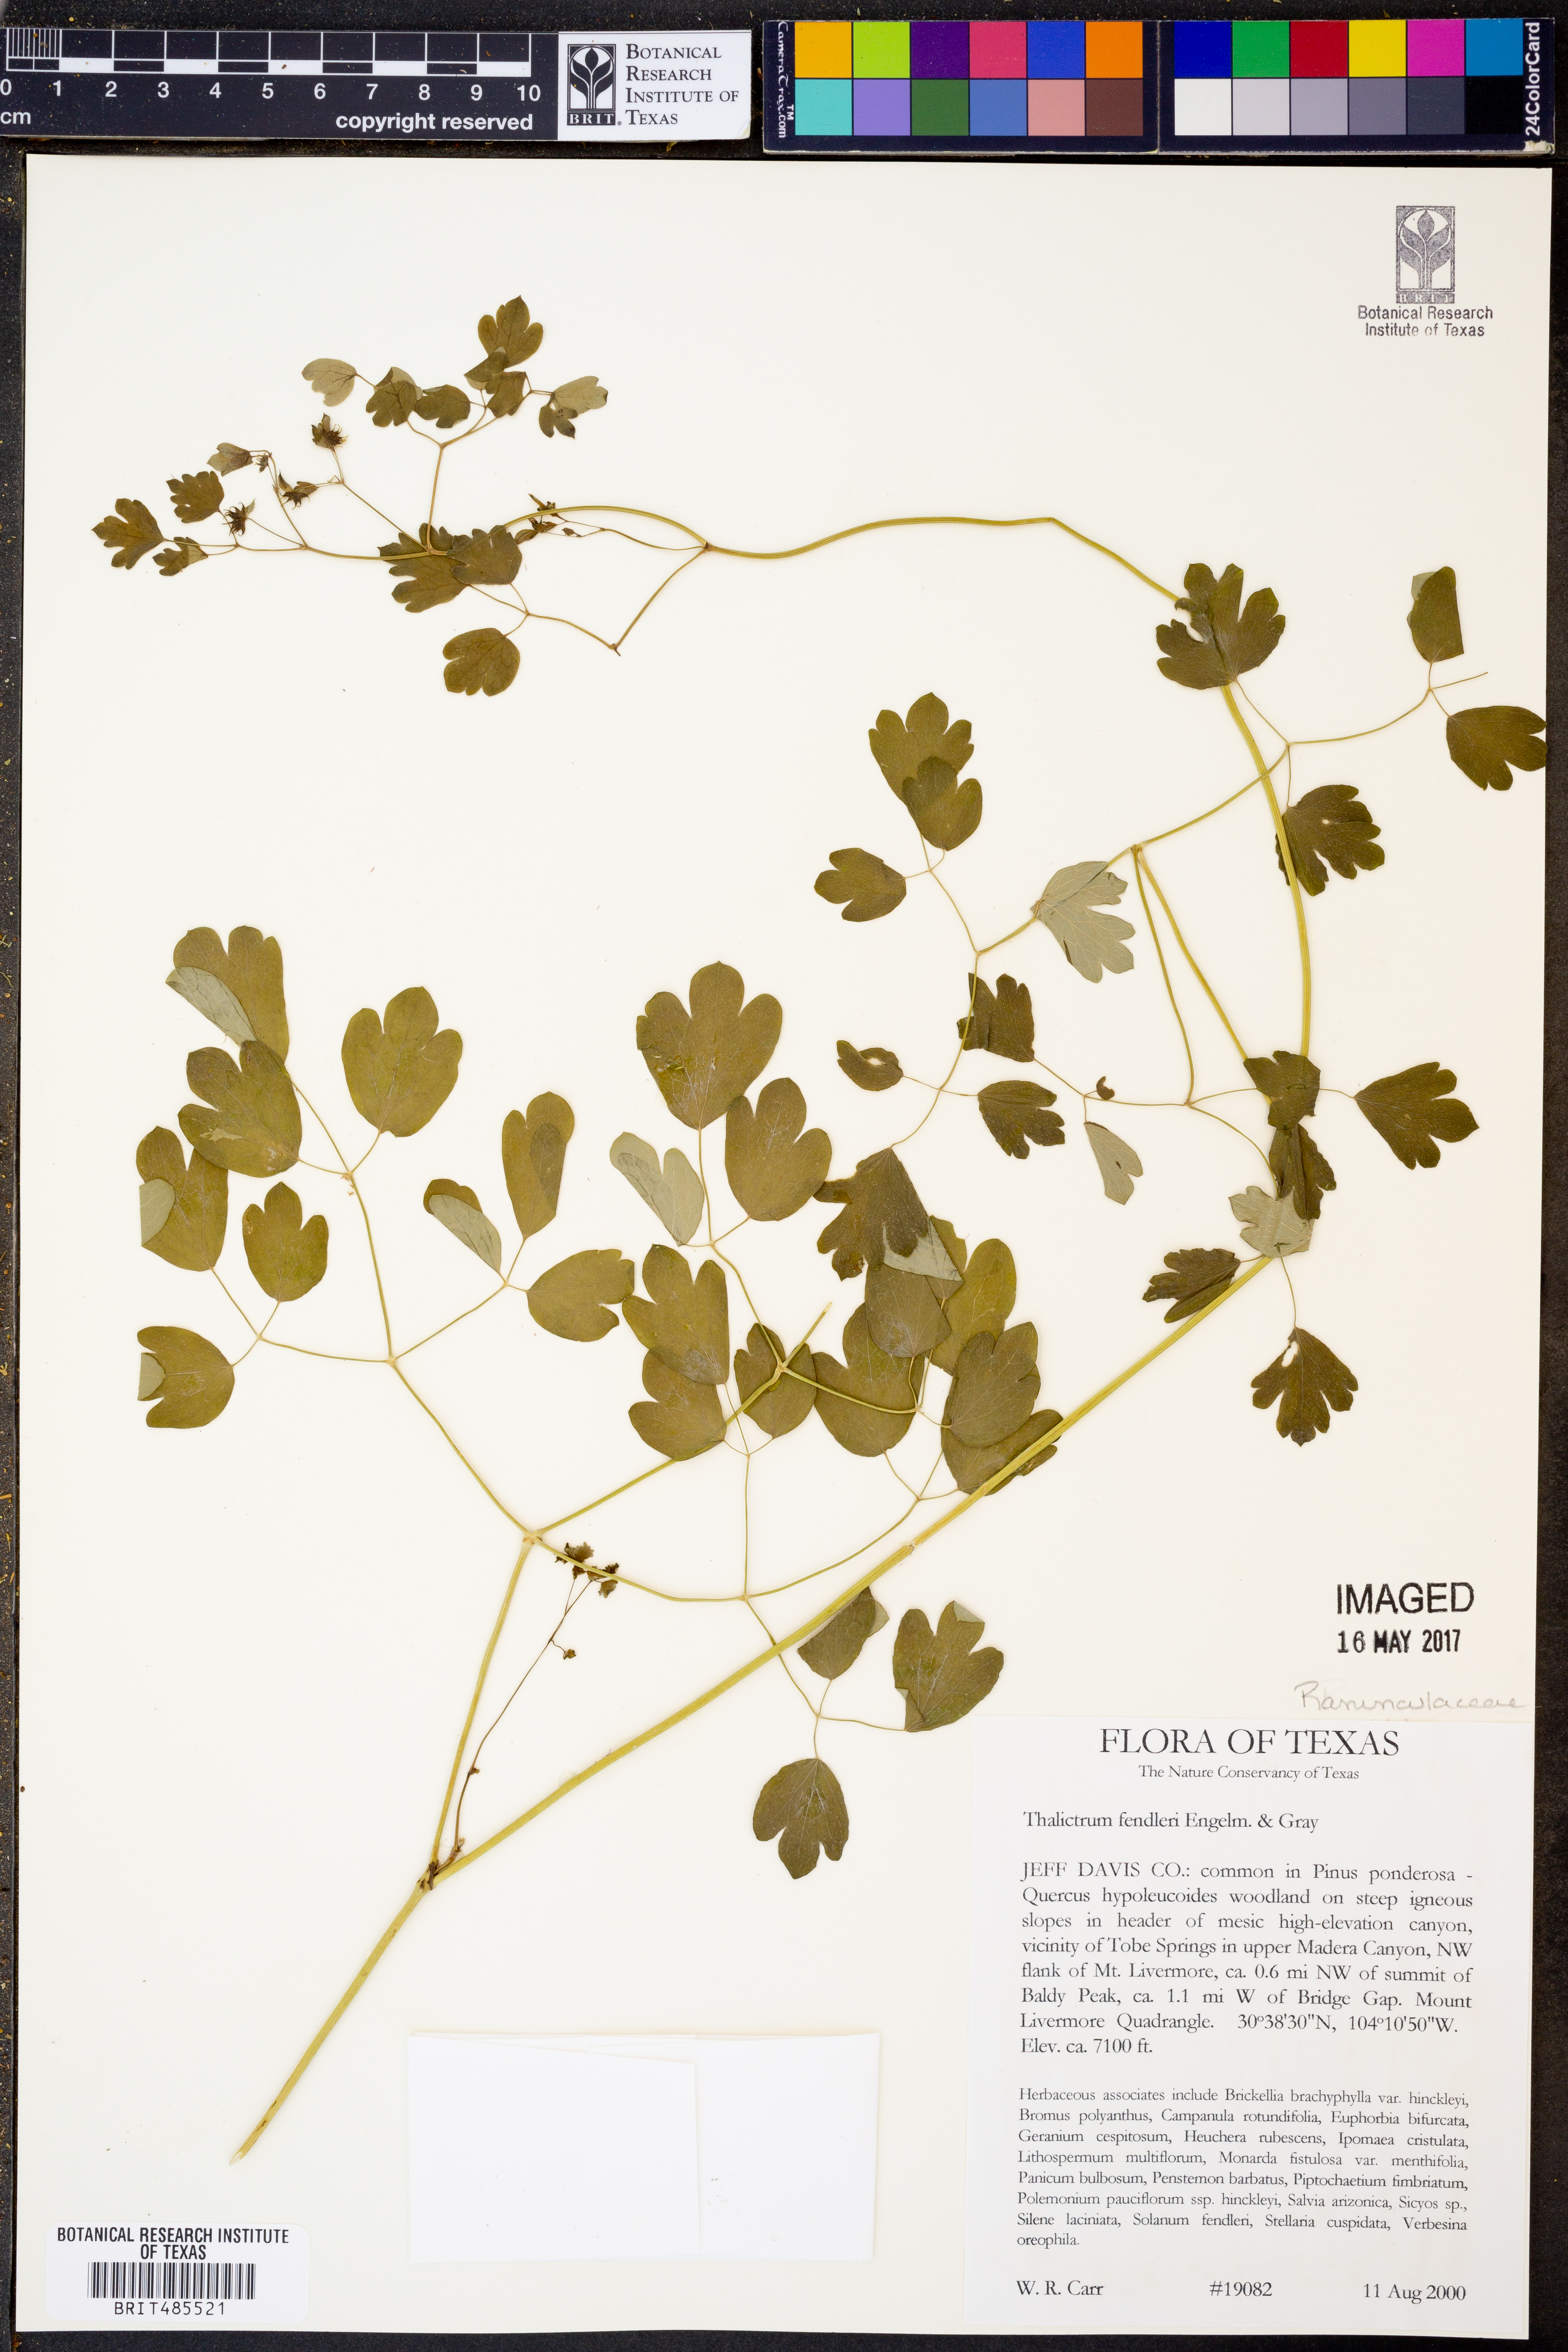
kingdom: Plantae
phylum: Tracheophyta
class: Magnoliopsida
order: Ranunculales
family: Ranunculaceae
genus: Thalictrum
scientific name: Thalictrum fendleri
